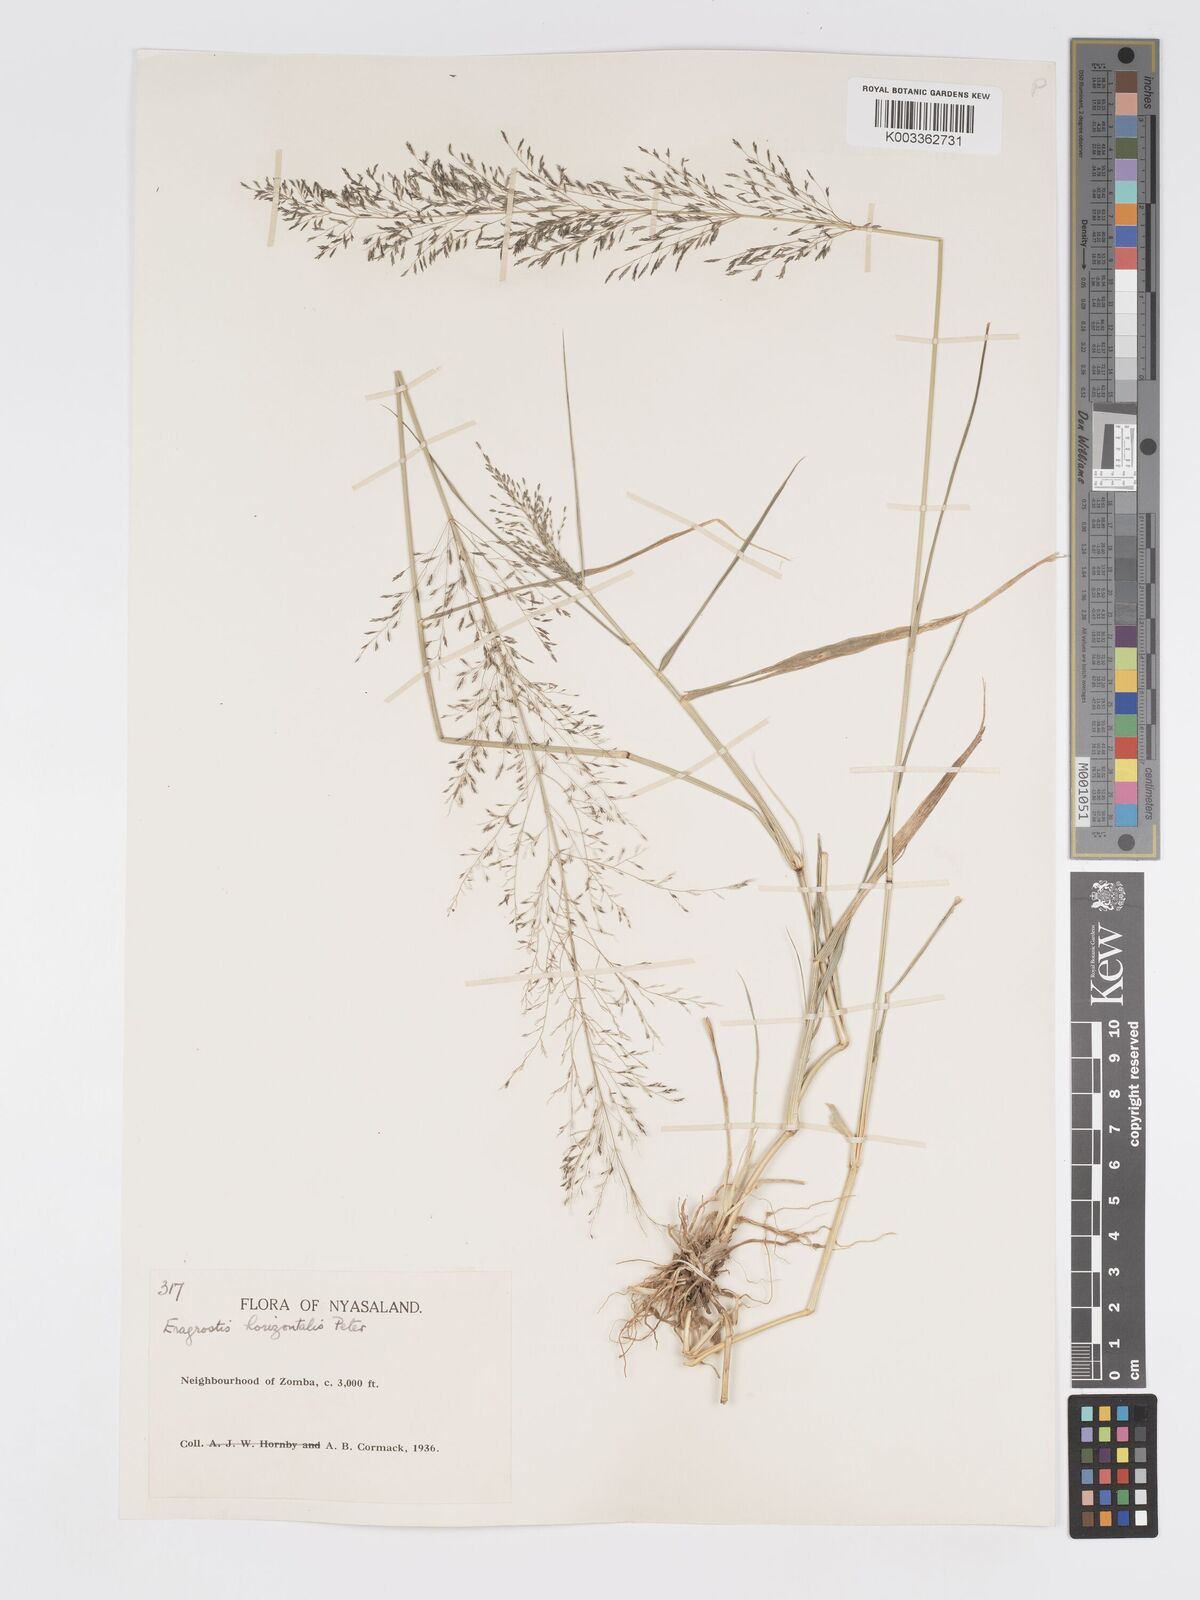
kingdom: Plantae
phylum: Tracheophyta
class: Liliopsida
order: Poales
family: Poaceae
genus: Eragrostis
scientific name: Eragrostis cylindriflora
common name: Cylinderflower lovegrass
